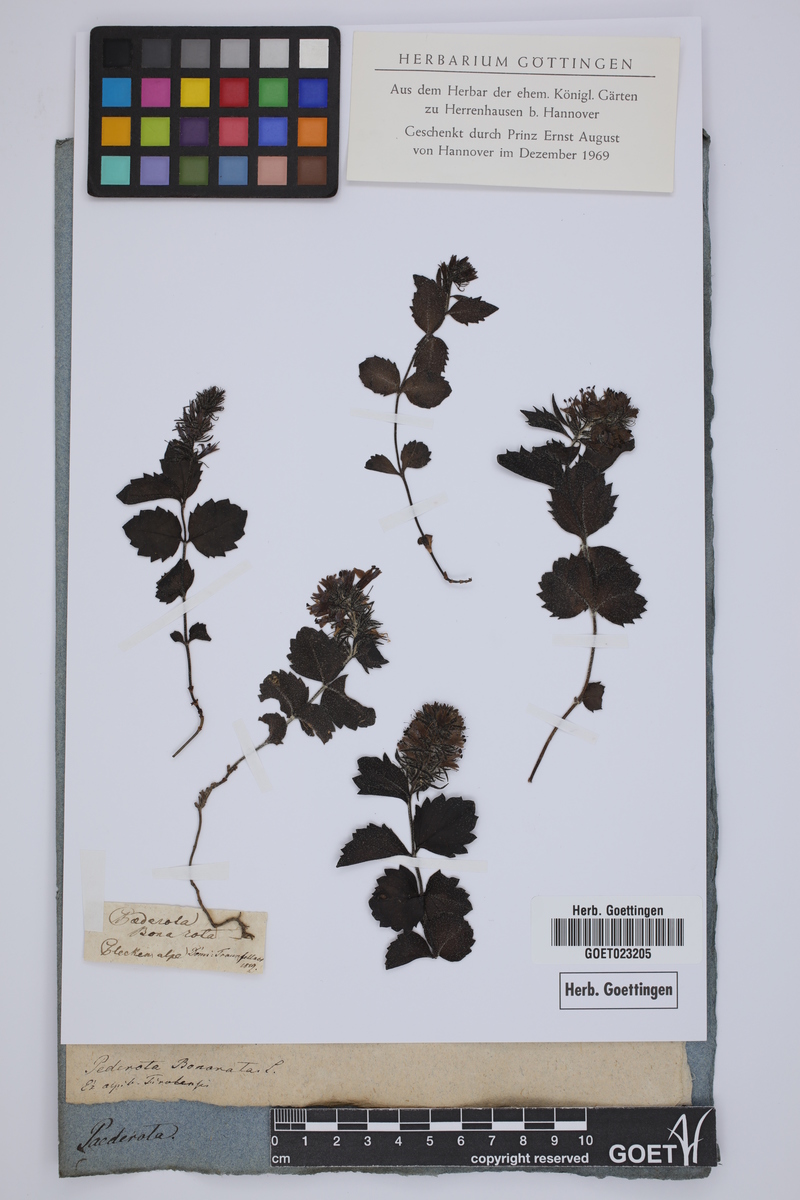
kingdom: Plantae
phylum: Tracheophyta
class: Magnoliopsida
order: Lamiales
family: Plantaginaceae
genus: Paederota
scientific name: Paederota bonarota
